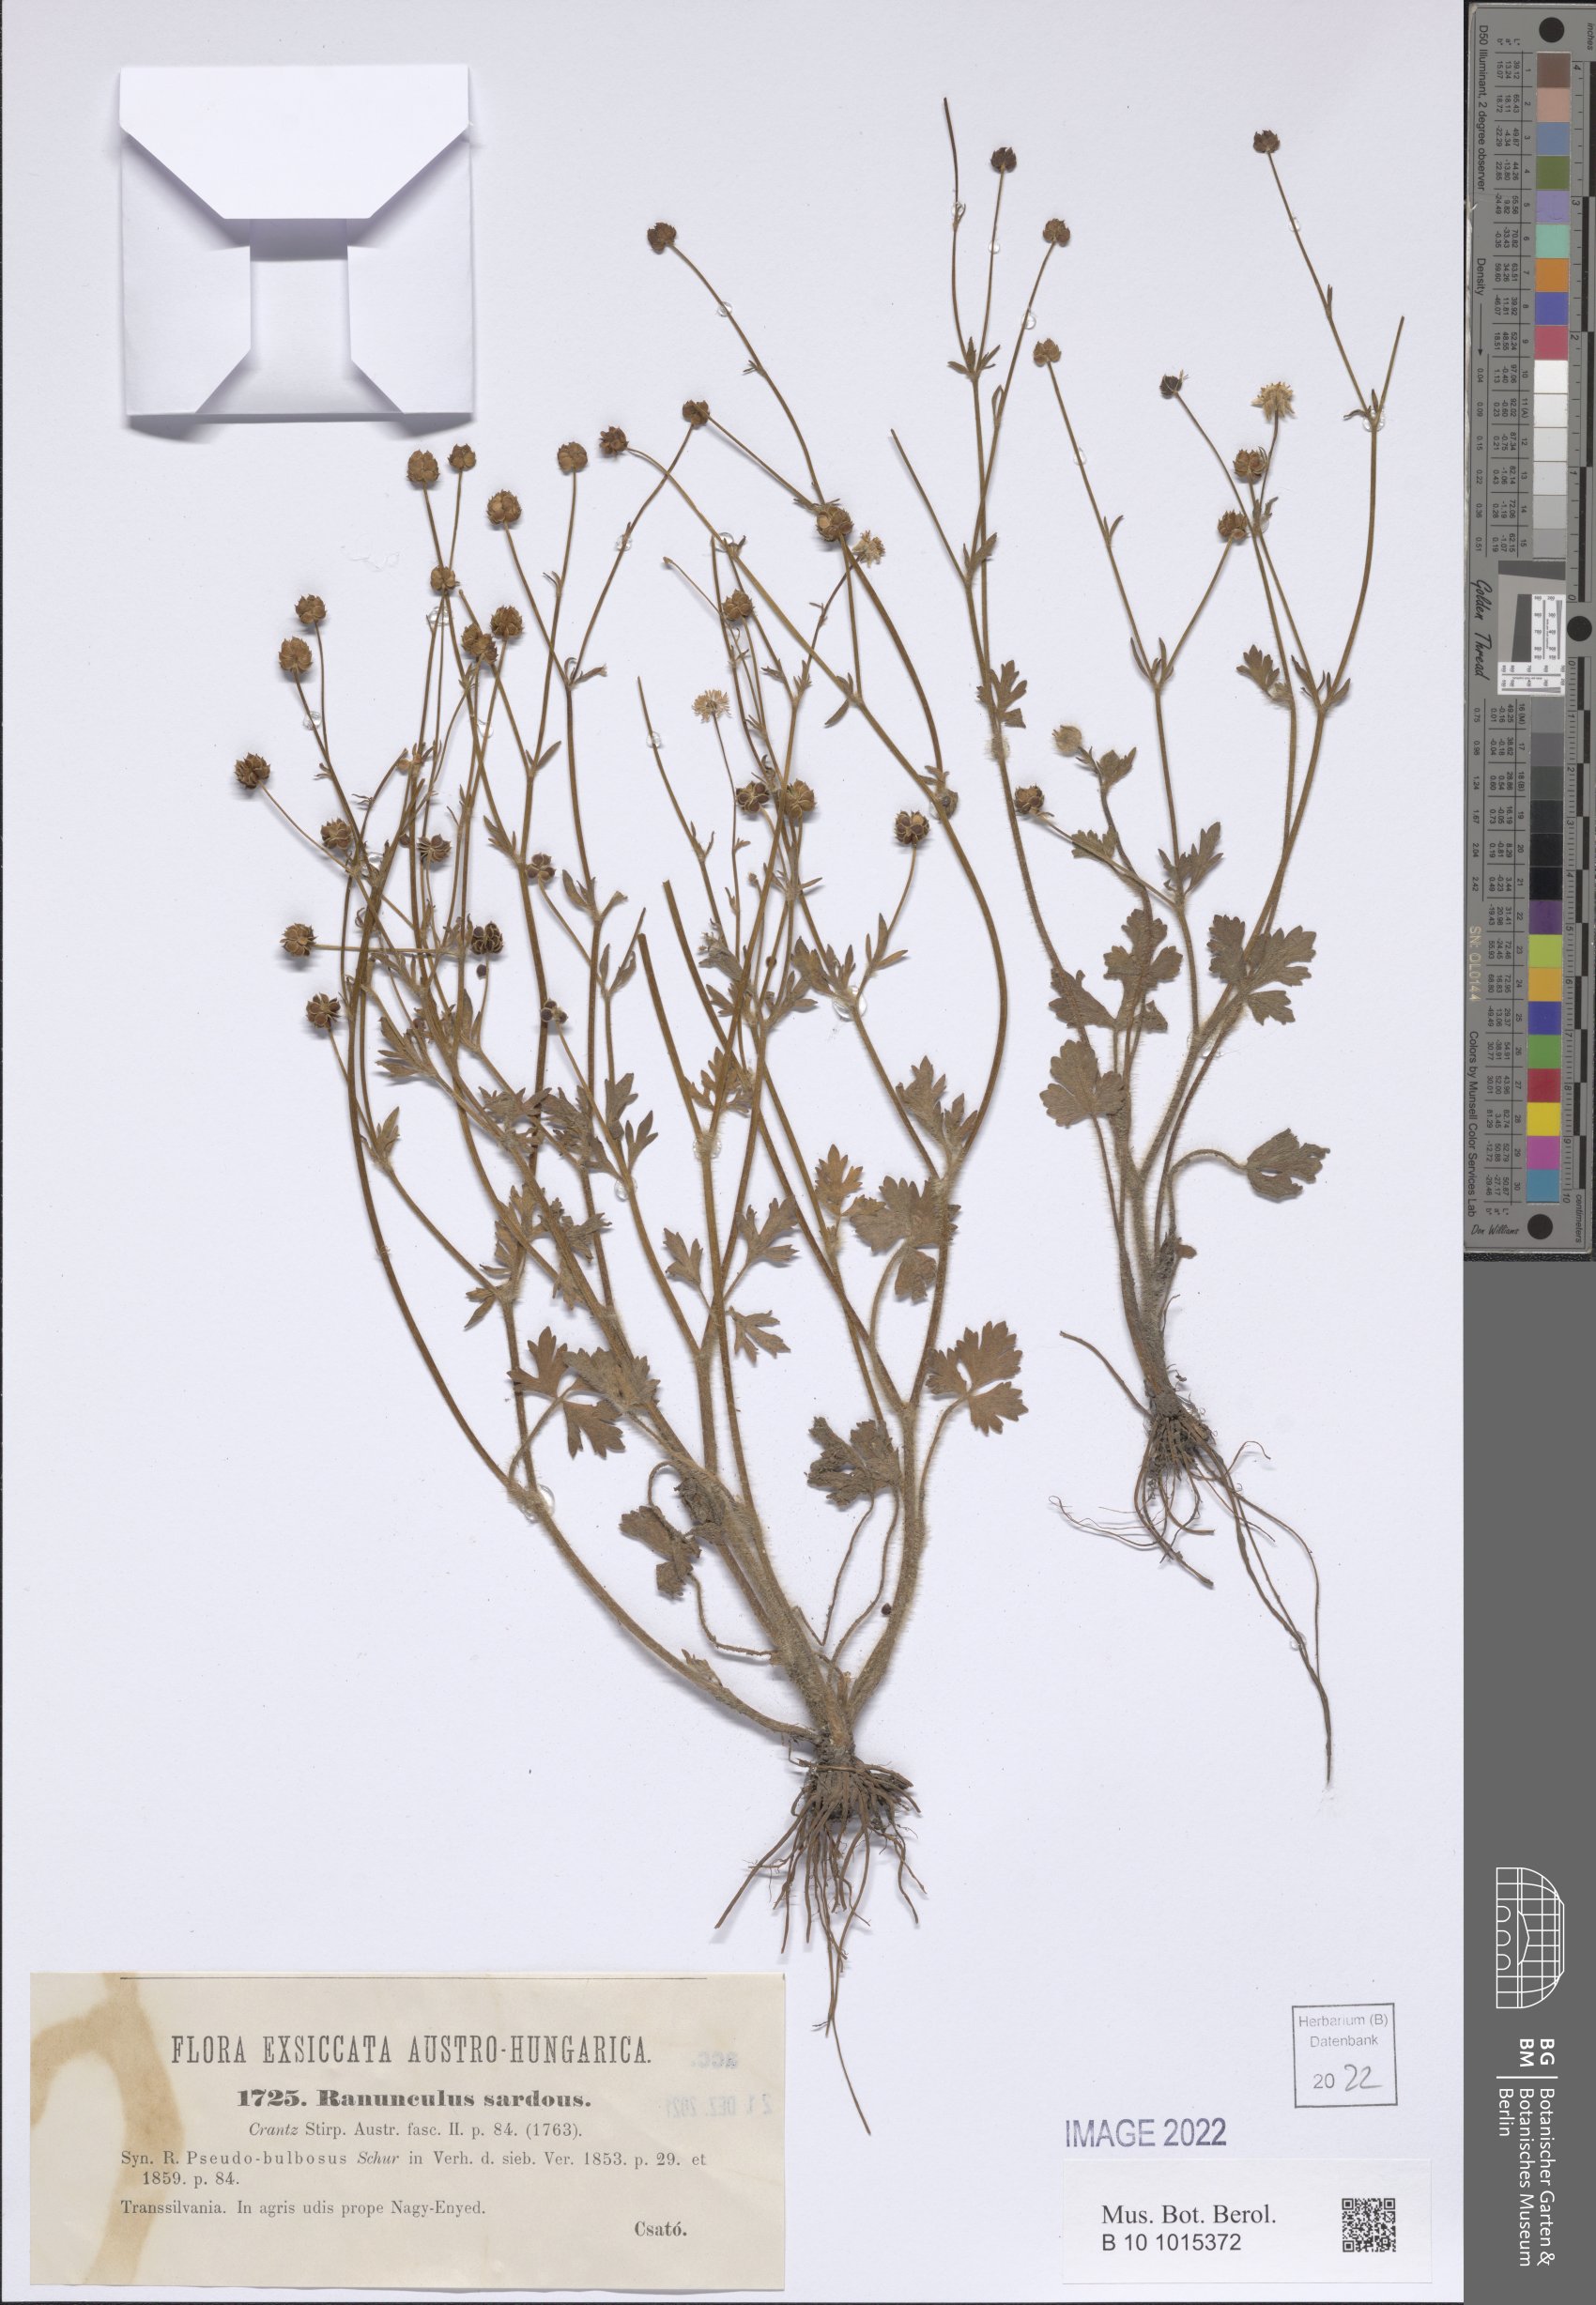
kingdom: Plantae
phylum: Tracheophyta
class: Magnoliopsida
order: Ranunculales
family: Ranunculaceae
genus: Ranunculus
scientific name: Ranunculus sardous
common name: Hairy buttercup
